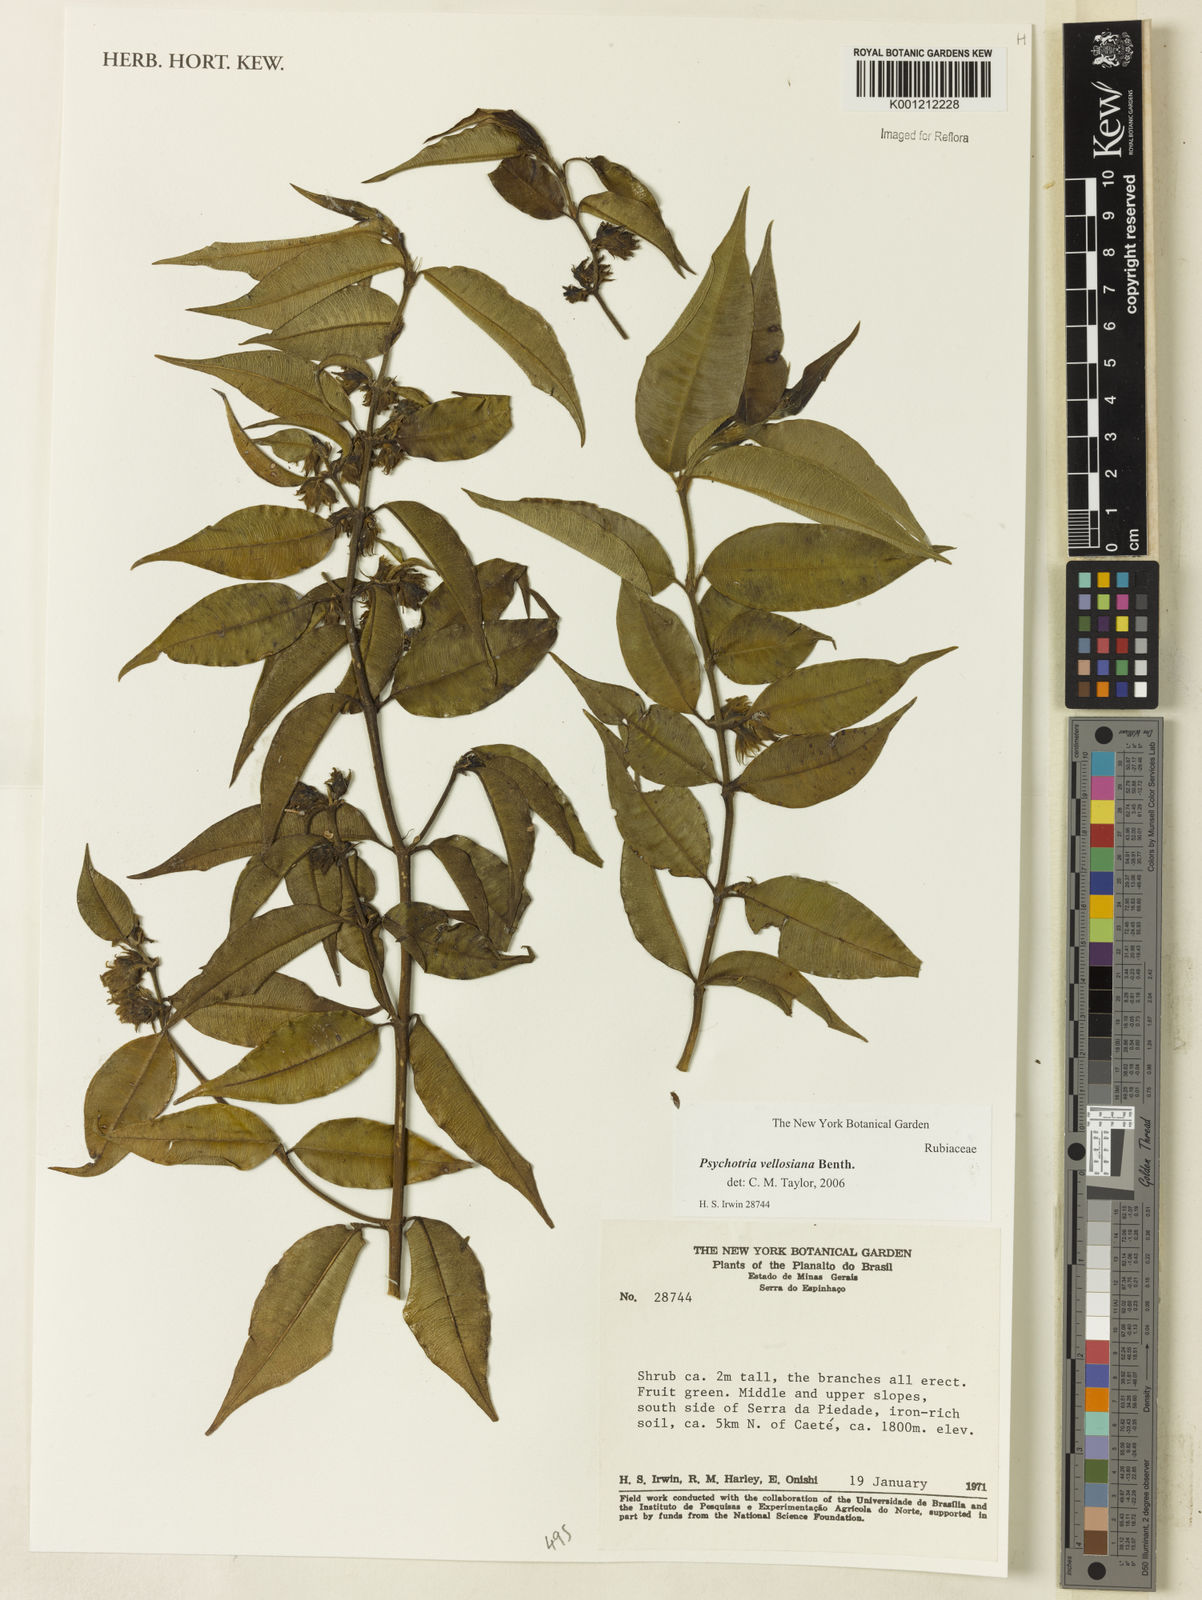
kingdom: Plantae
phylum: Tracheophyta
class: Magnoliopsida
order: Gentianales
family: Rubiaceae
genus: Palicourea
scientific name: Palicourea sessilis
